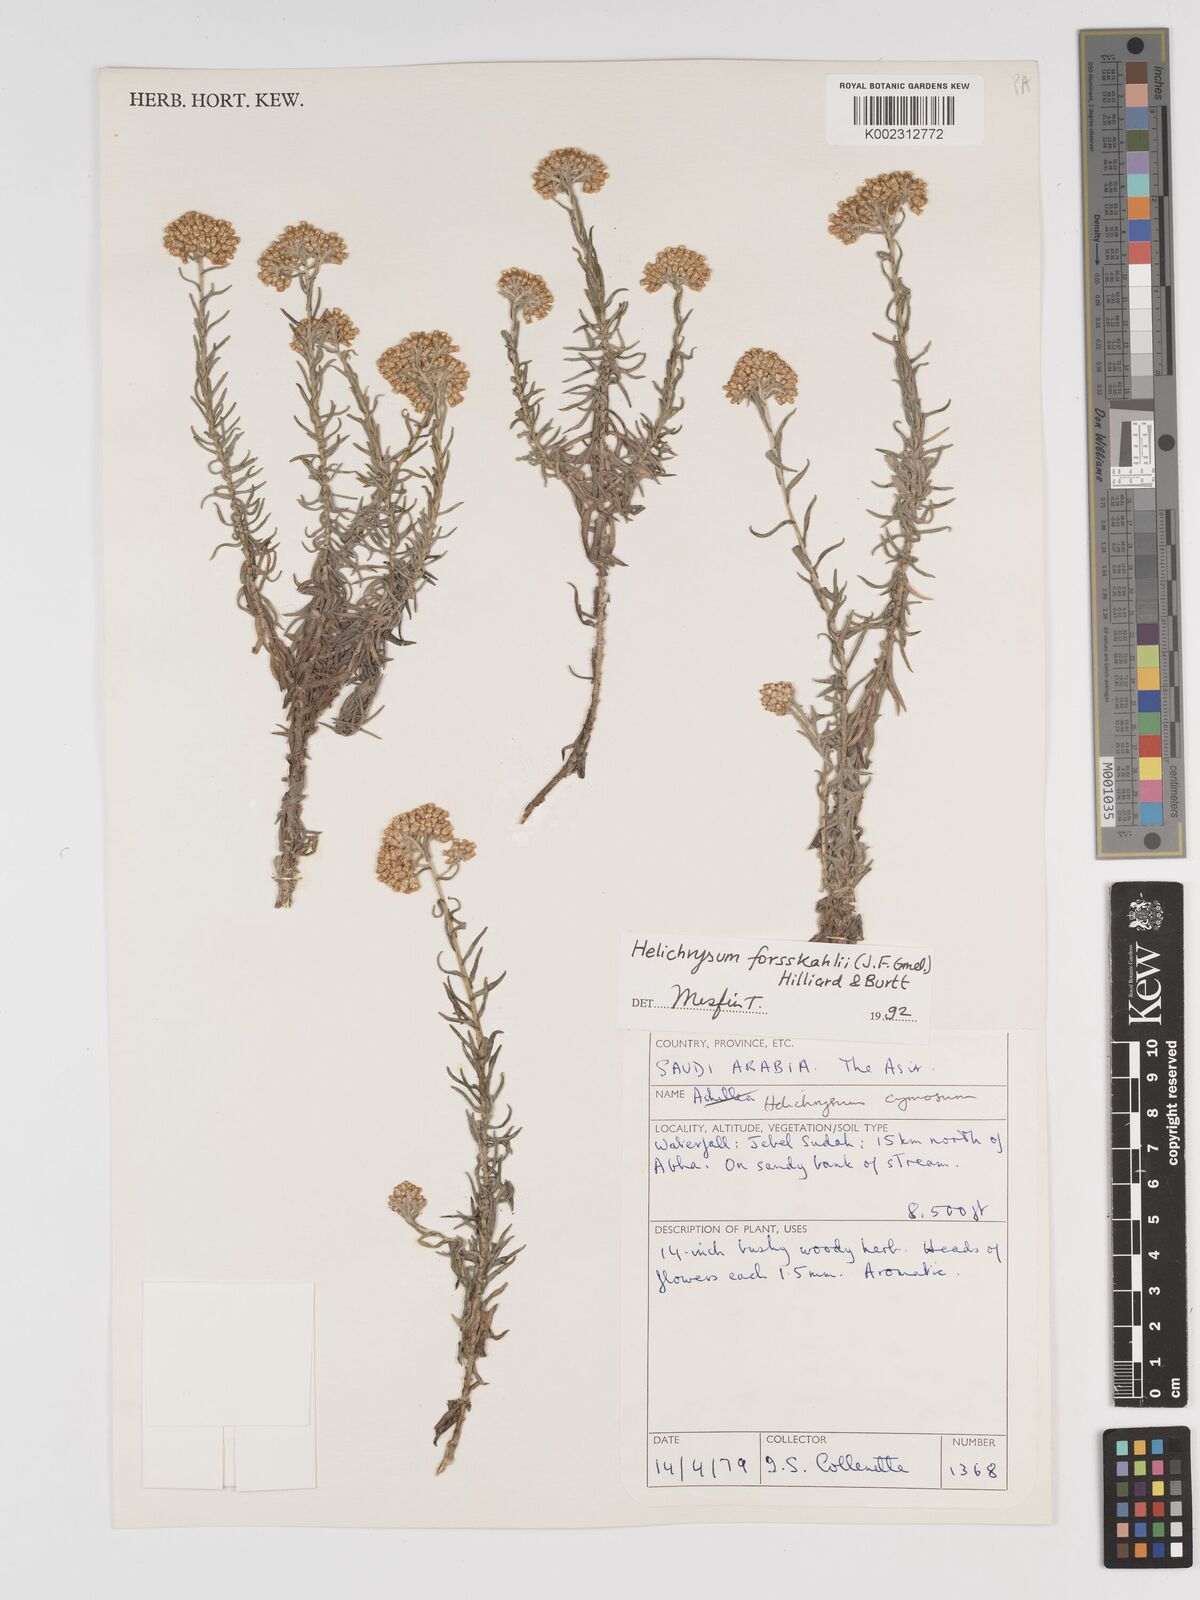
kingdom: Plantae
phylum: Tracheophyta
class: Magnoliopsida
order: Asterales
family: Asteraceae
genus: Helichrysum
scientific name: Helichrysum cymosum
